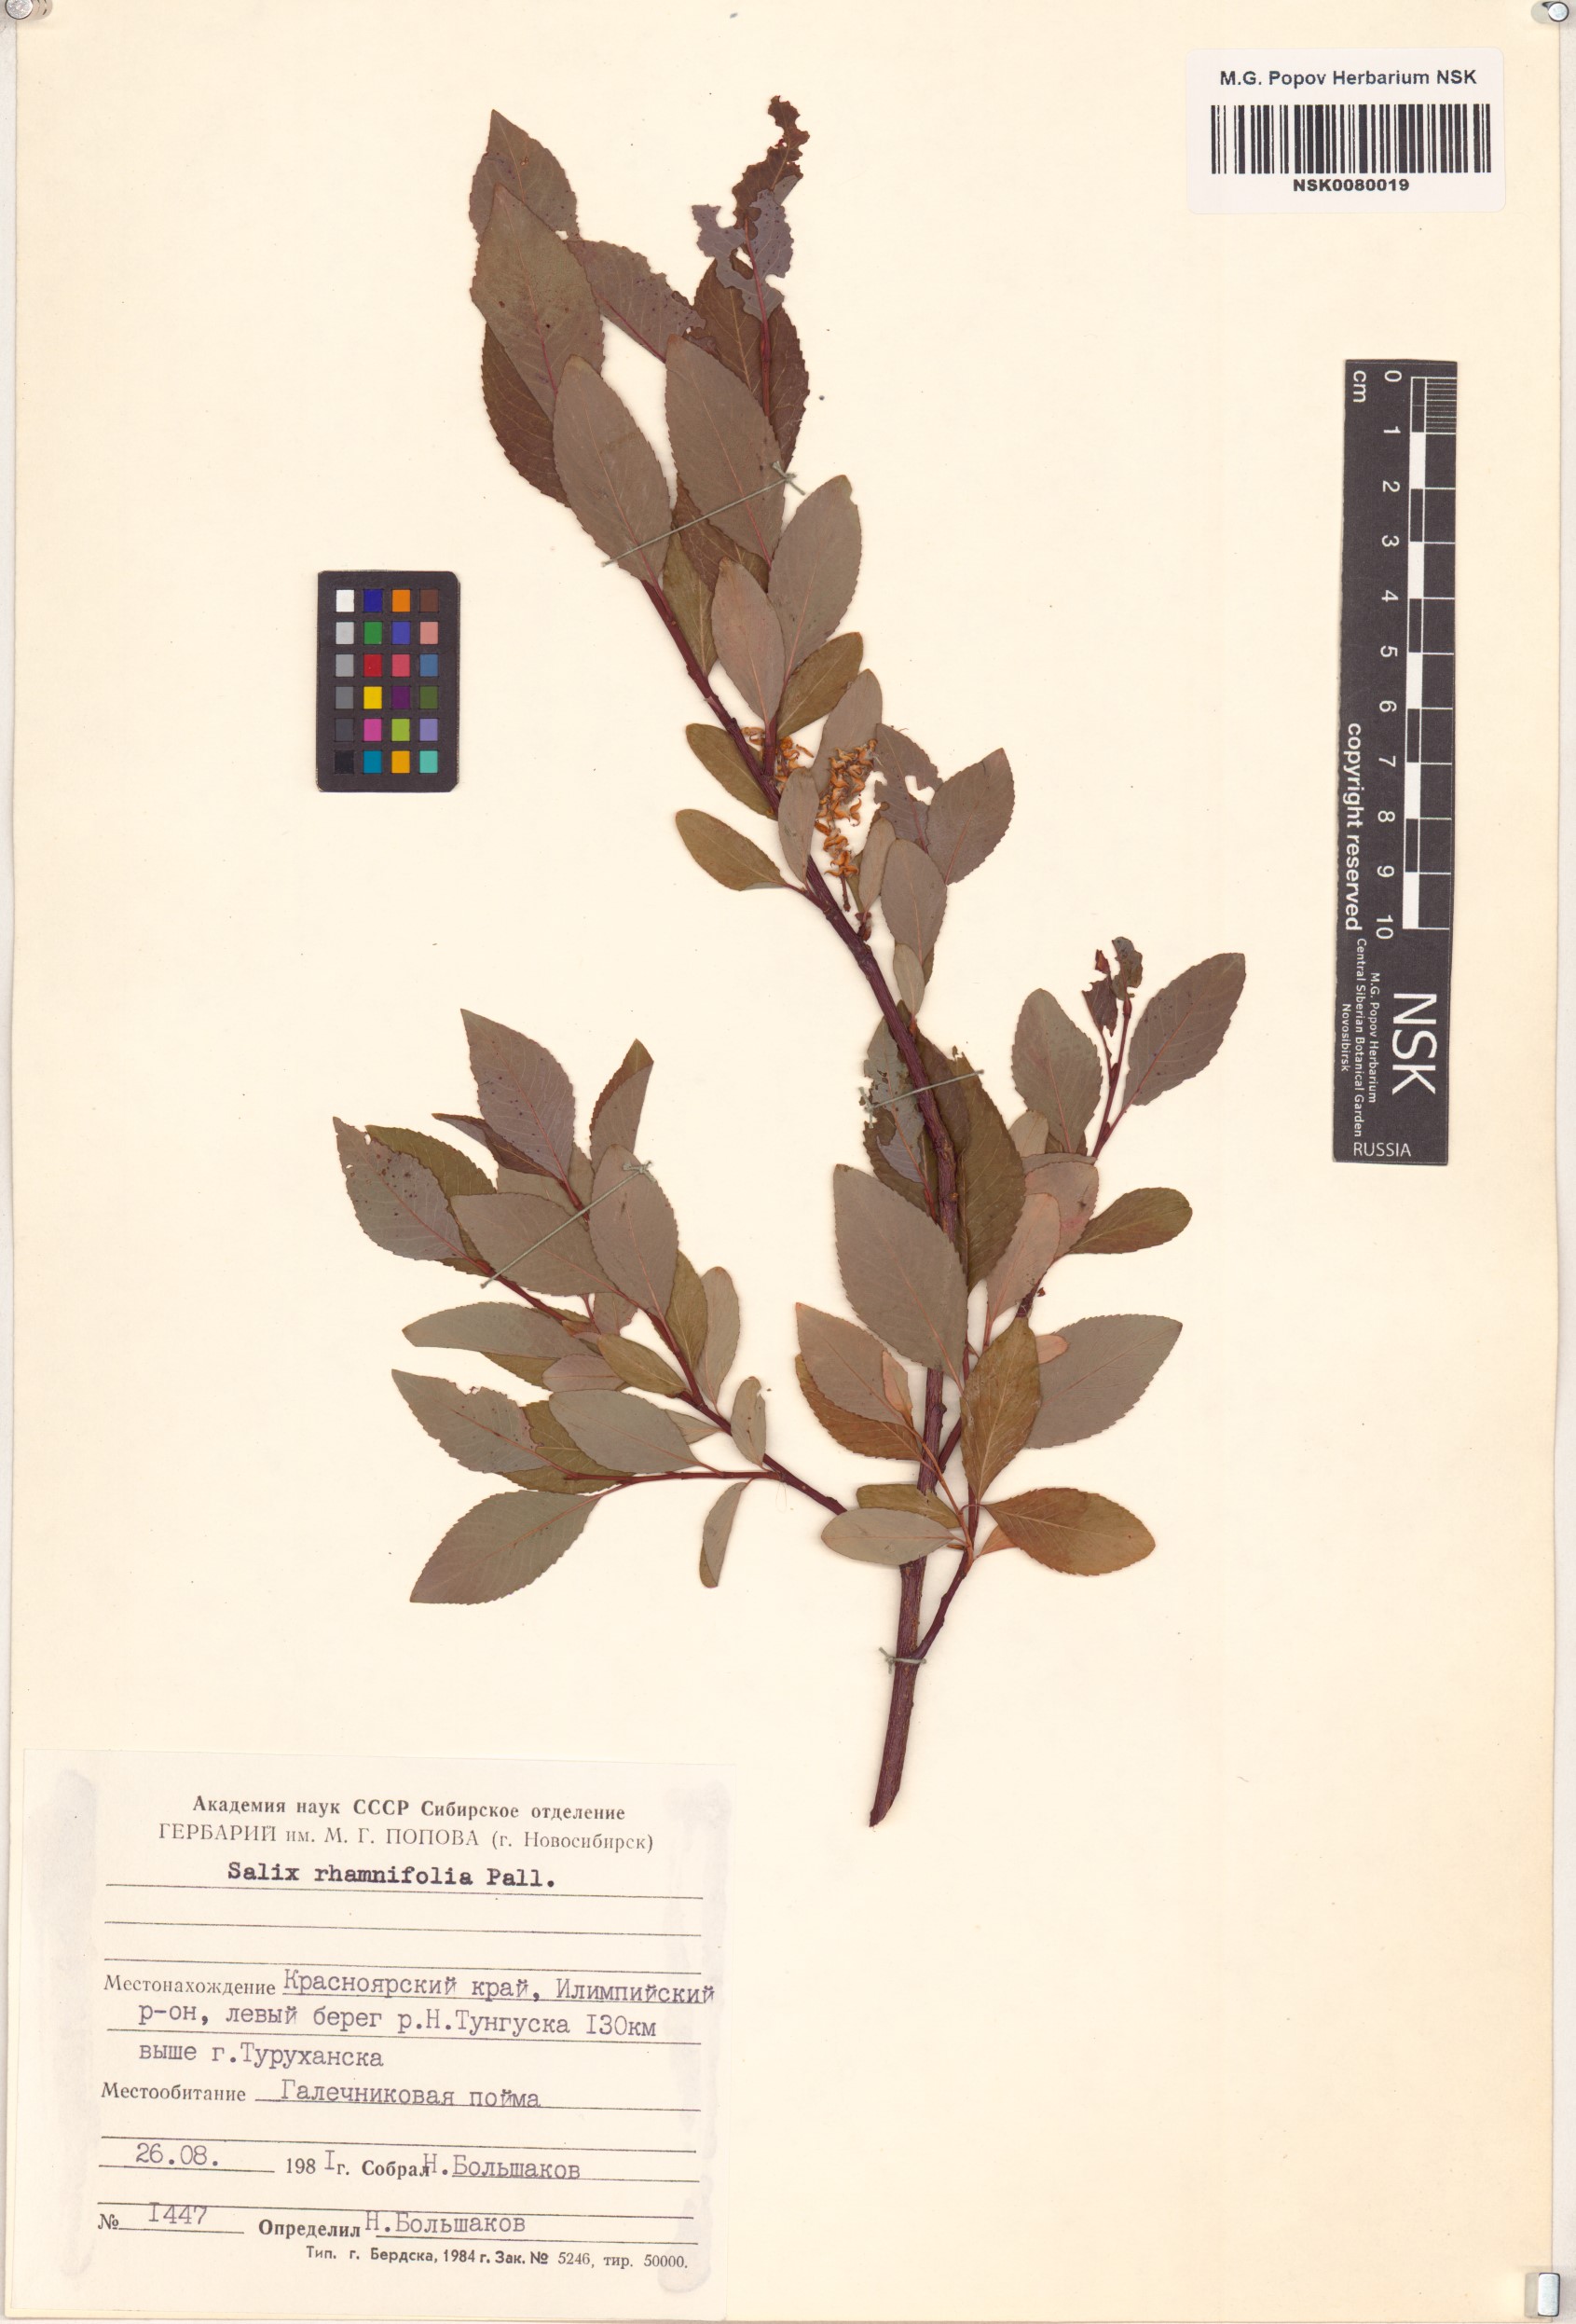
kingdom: Plantae
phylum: Tracheophyta
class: Magnoliopsida
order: Malpighiales
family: Salicaceae
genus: Salix
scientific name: Salix rhamnifolia
